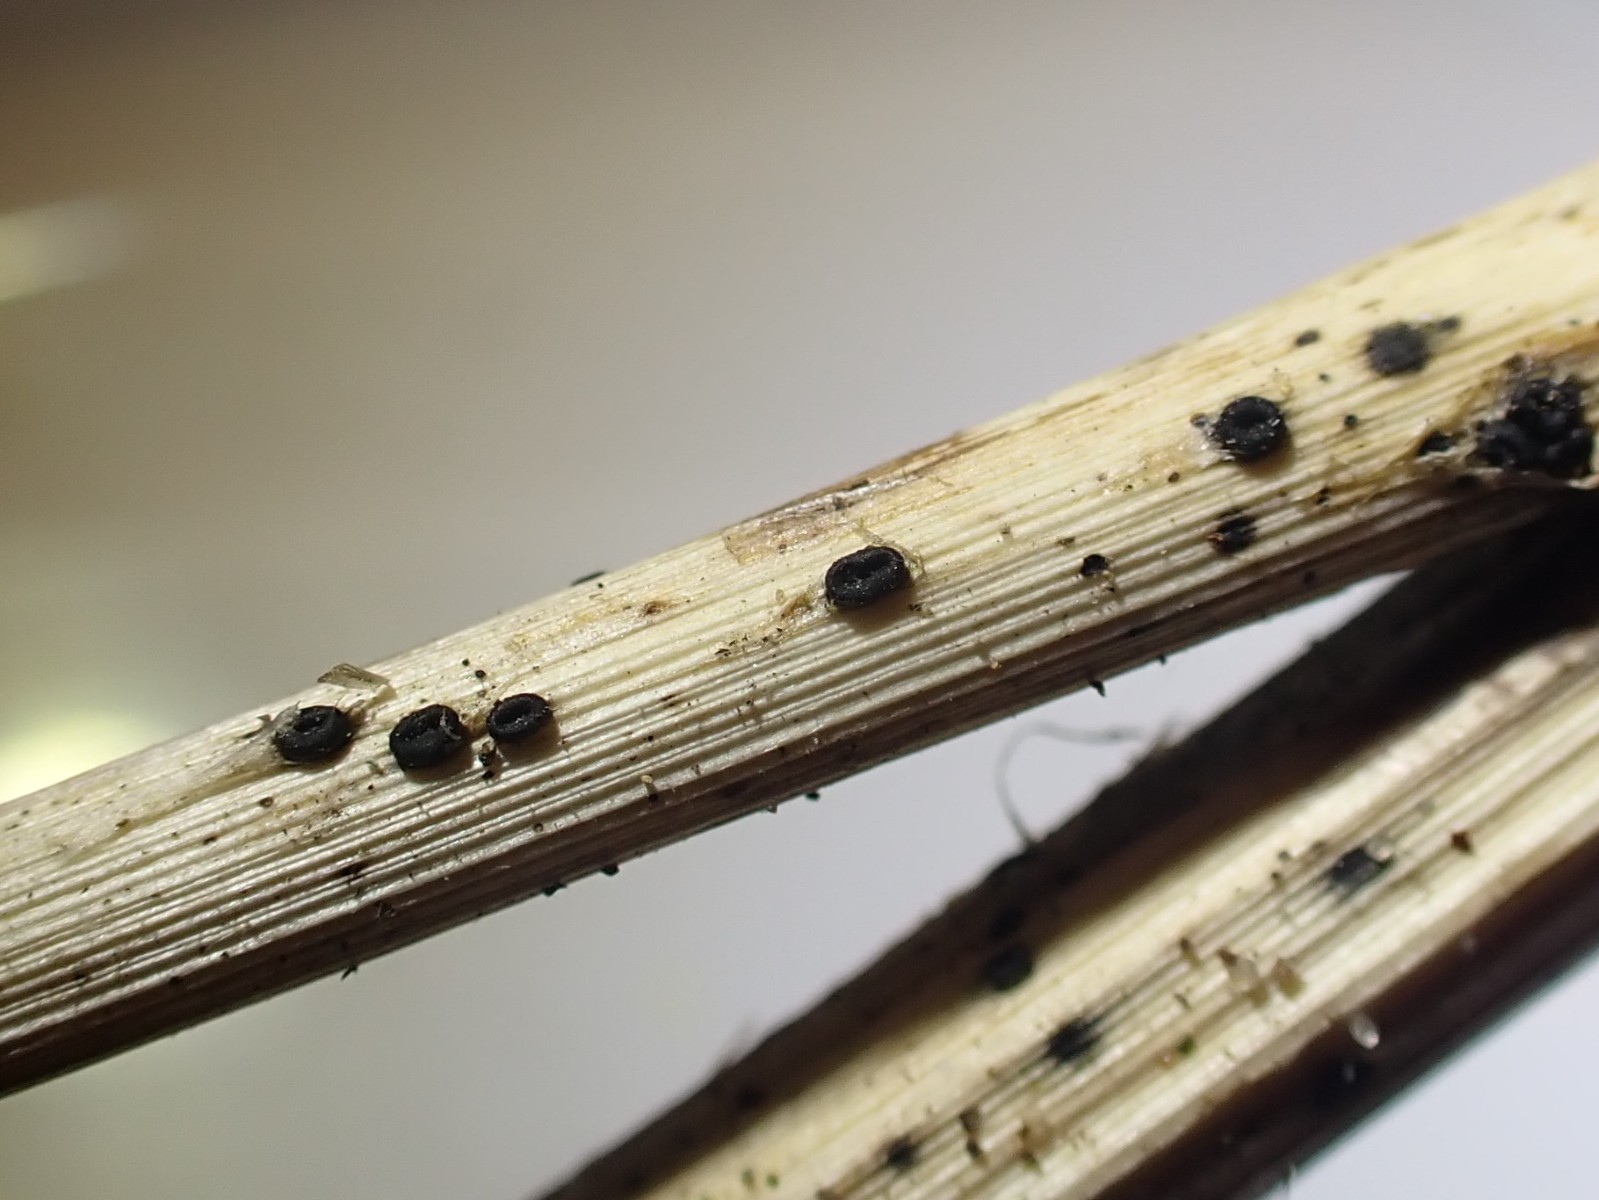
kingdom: Fungi
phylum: Ascomycota
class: Leotiomycetes
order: Helotiales
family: Heterosphaeriaceae
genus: Heterosphaeria
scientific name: Heterosphaeria
